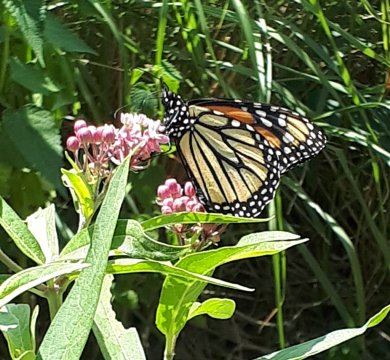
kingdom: Animalia
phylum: Arthropoda
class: Insecta
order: Lepidoptera
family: Nymphalidae
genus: Danaus
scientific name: Danaus plexippus
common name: Monarch
